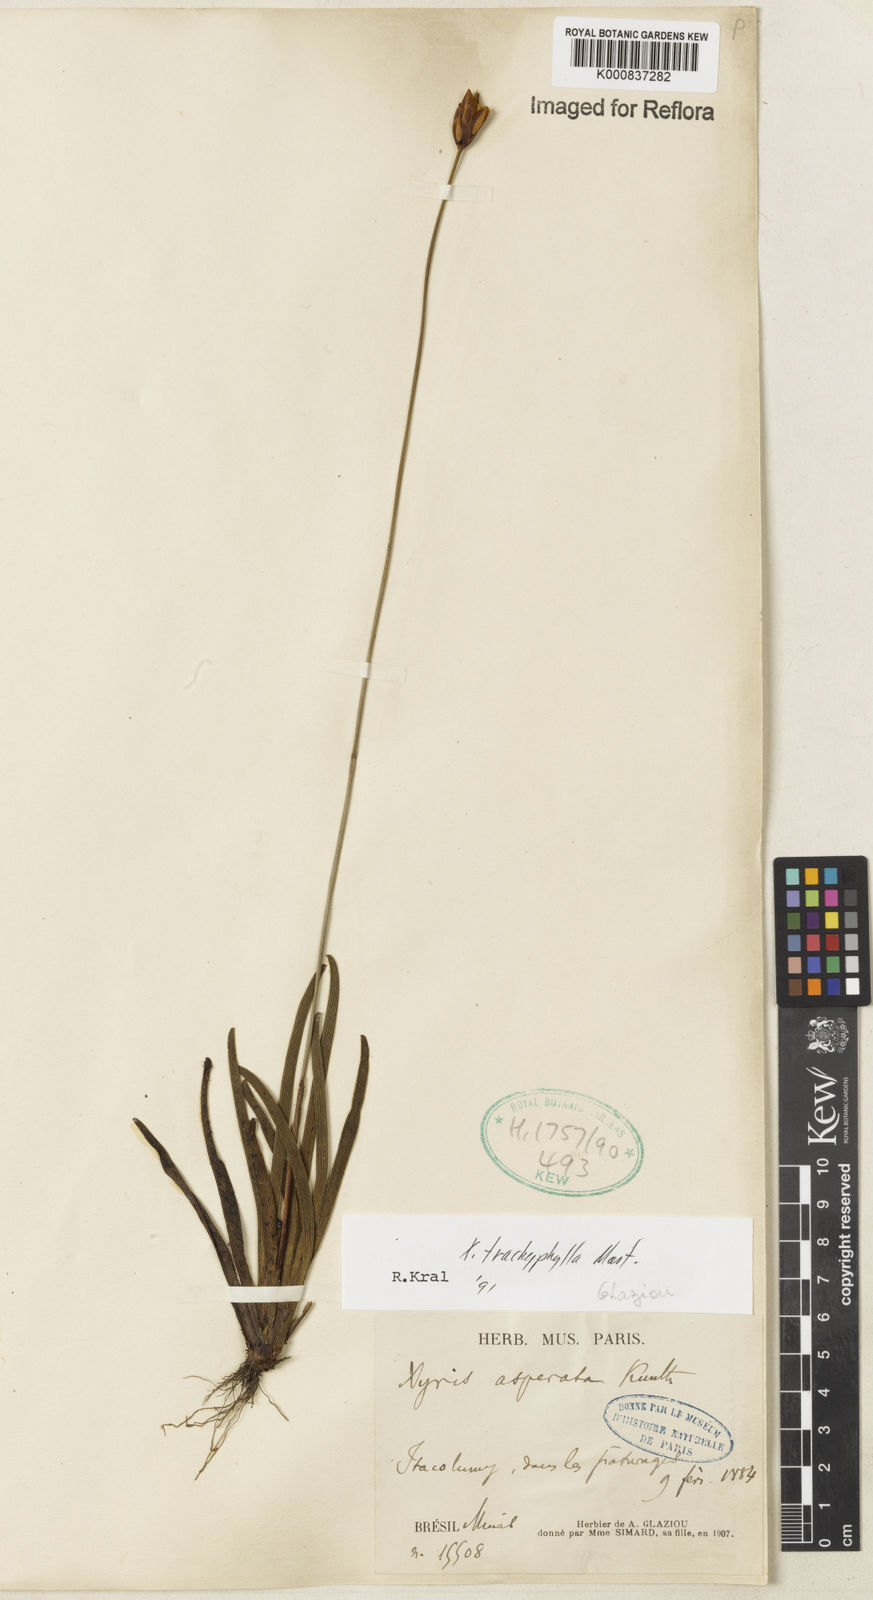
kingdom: Plantae
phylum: Tracheophyta
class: Liliopsida
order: Poales
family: Xyridaceae
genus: Xyris
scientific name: Xyris trachyphylla
